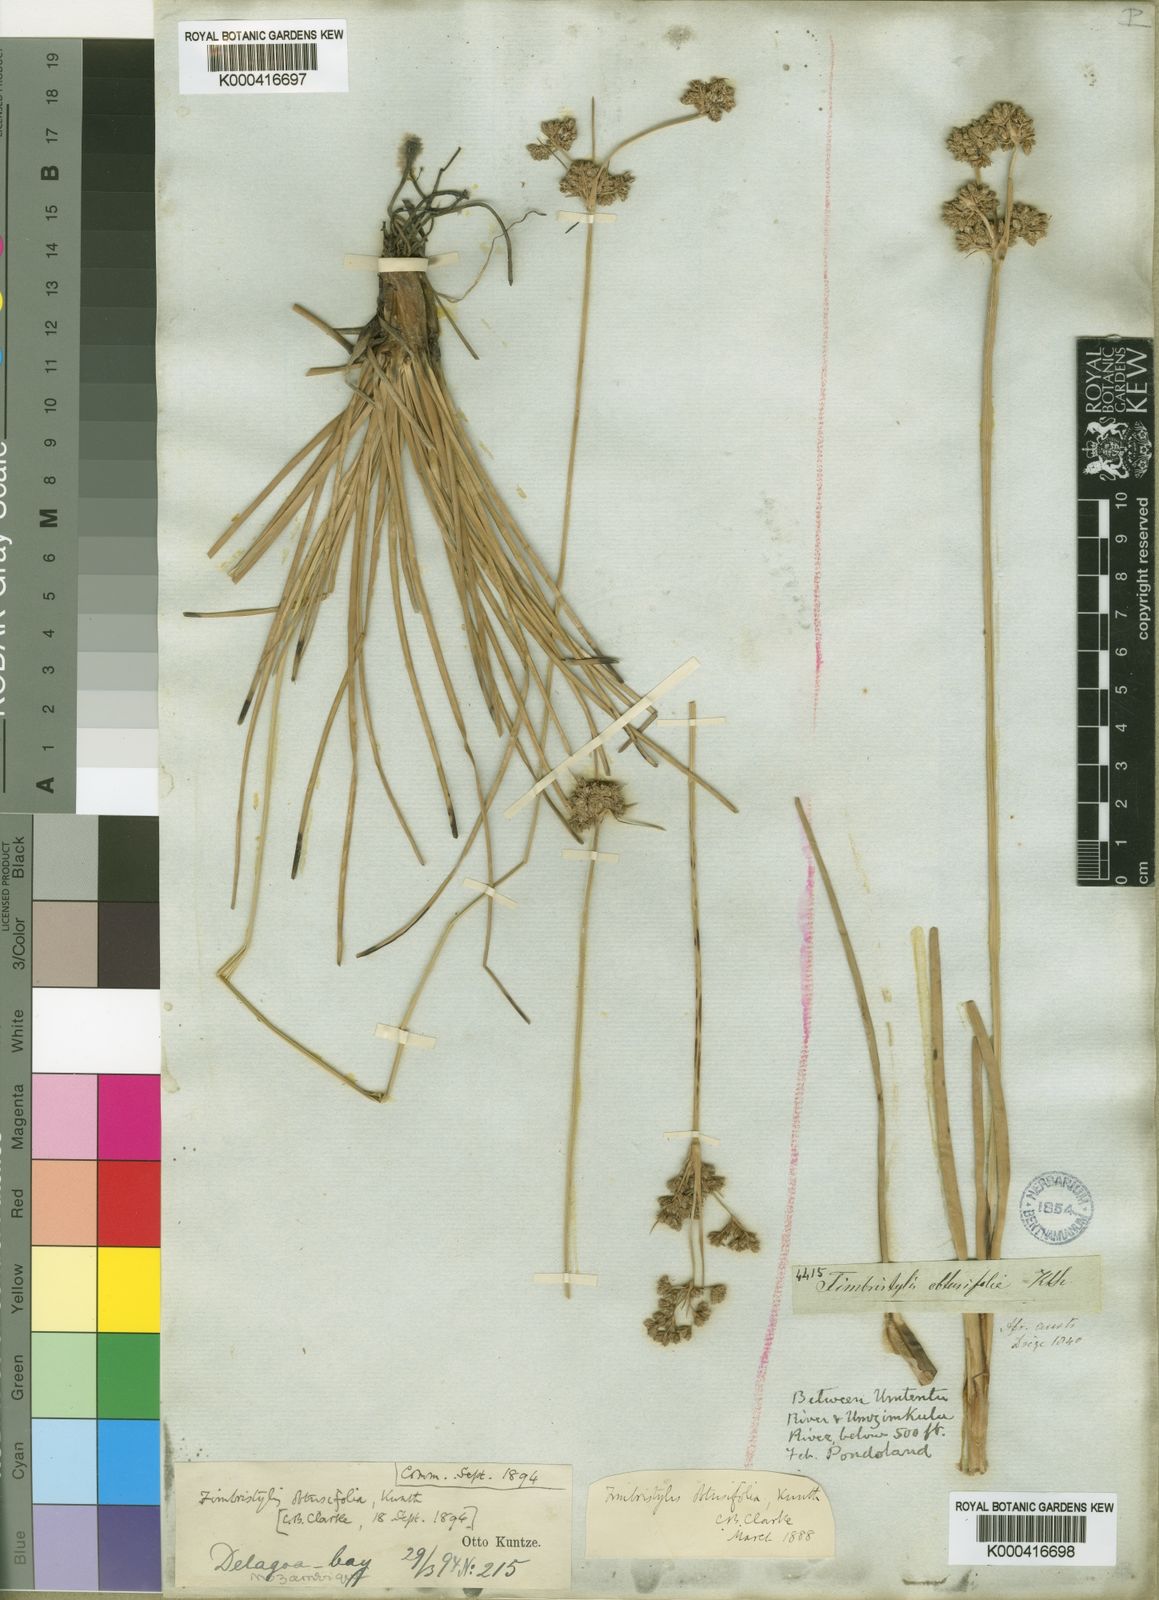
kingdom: Plantae
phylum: Tracheophyta
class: Liliopsida
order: Poales
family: Cyperaceae
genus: Fimbristylis
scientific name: Fimbristylis cymosa
